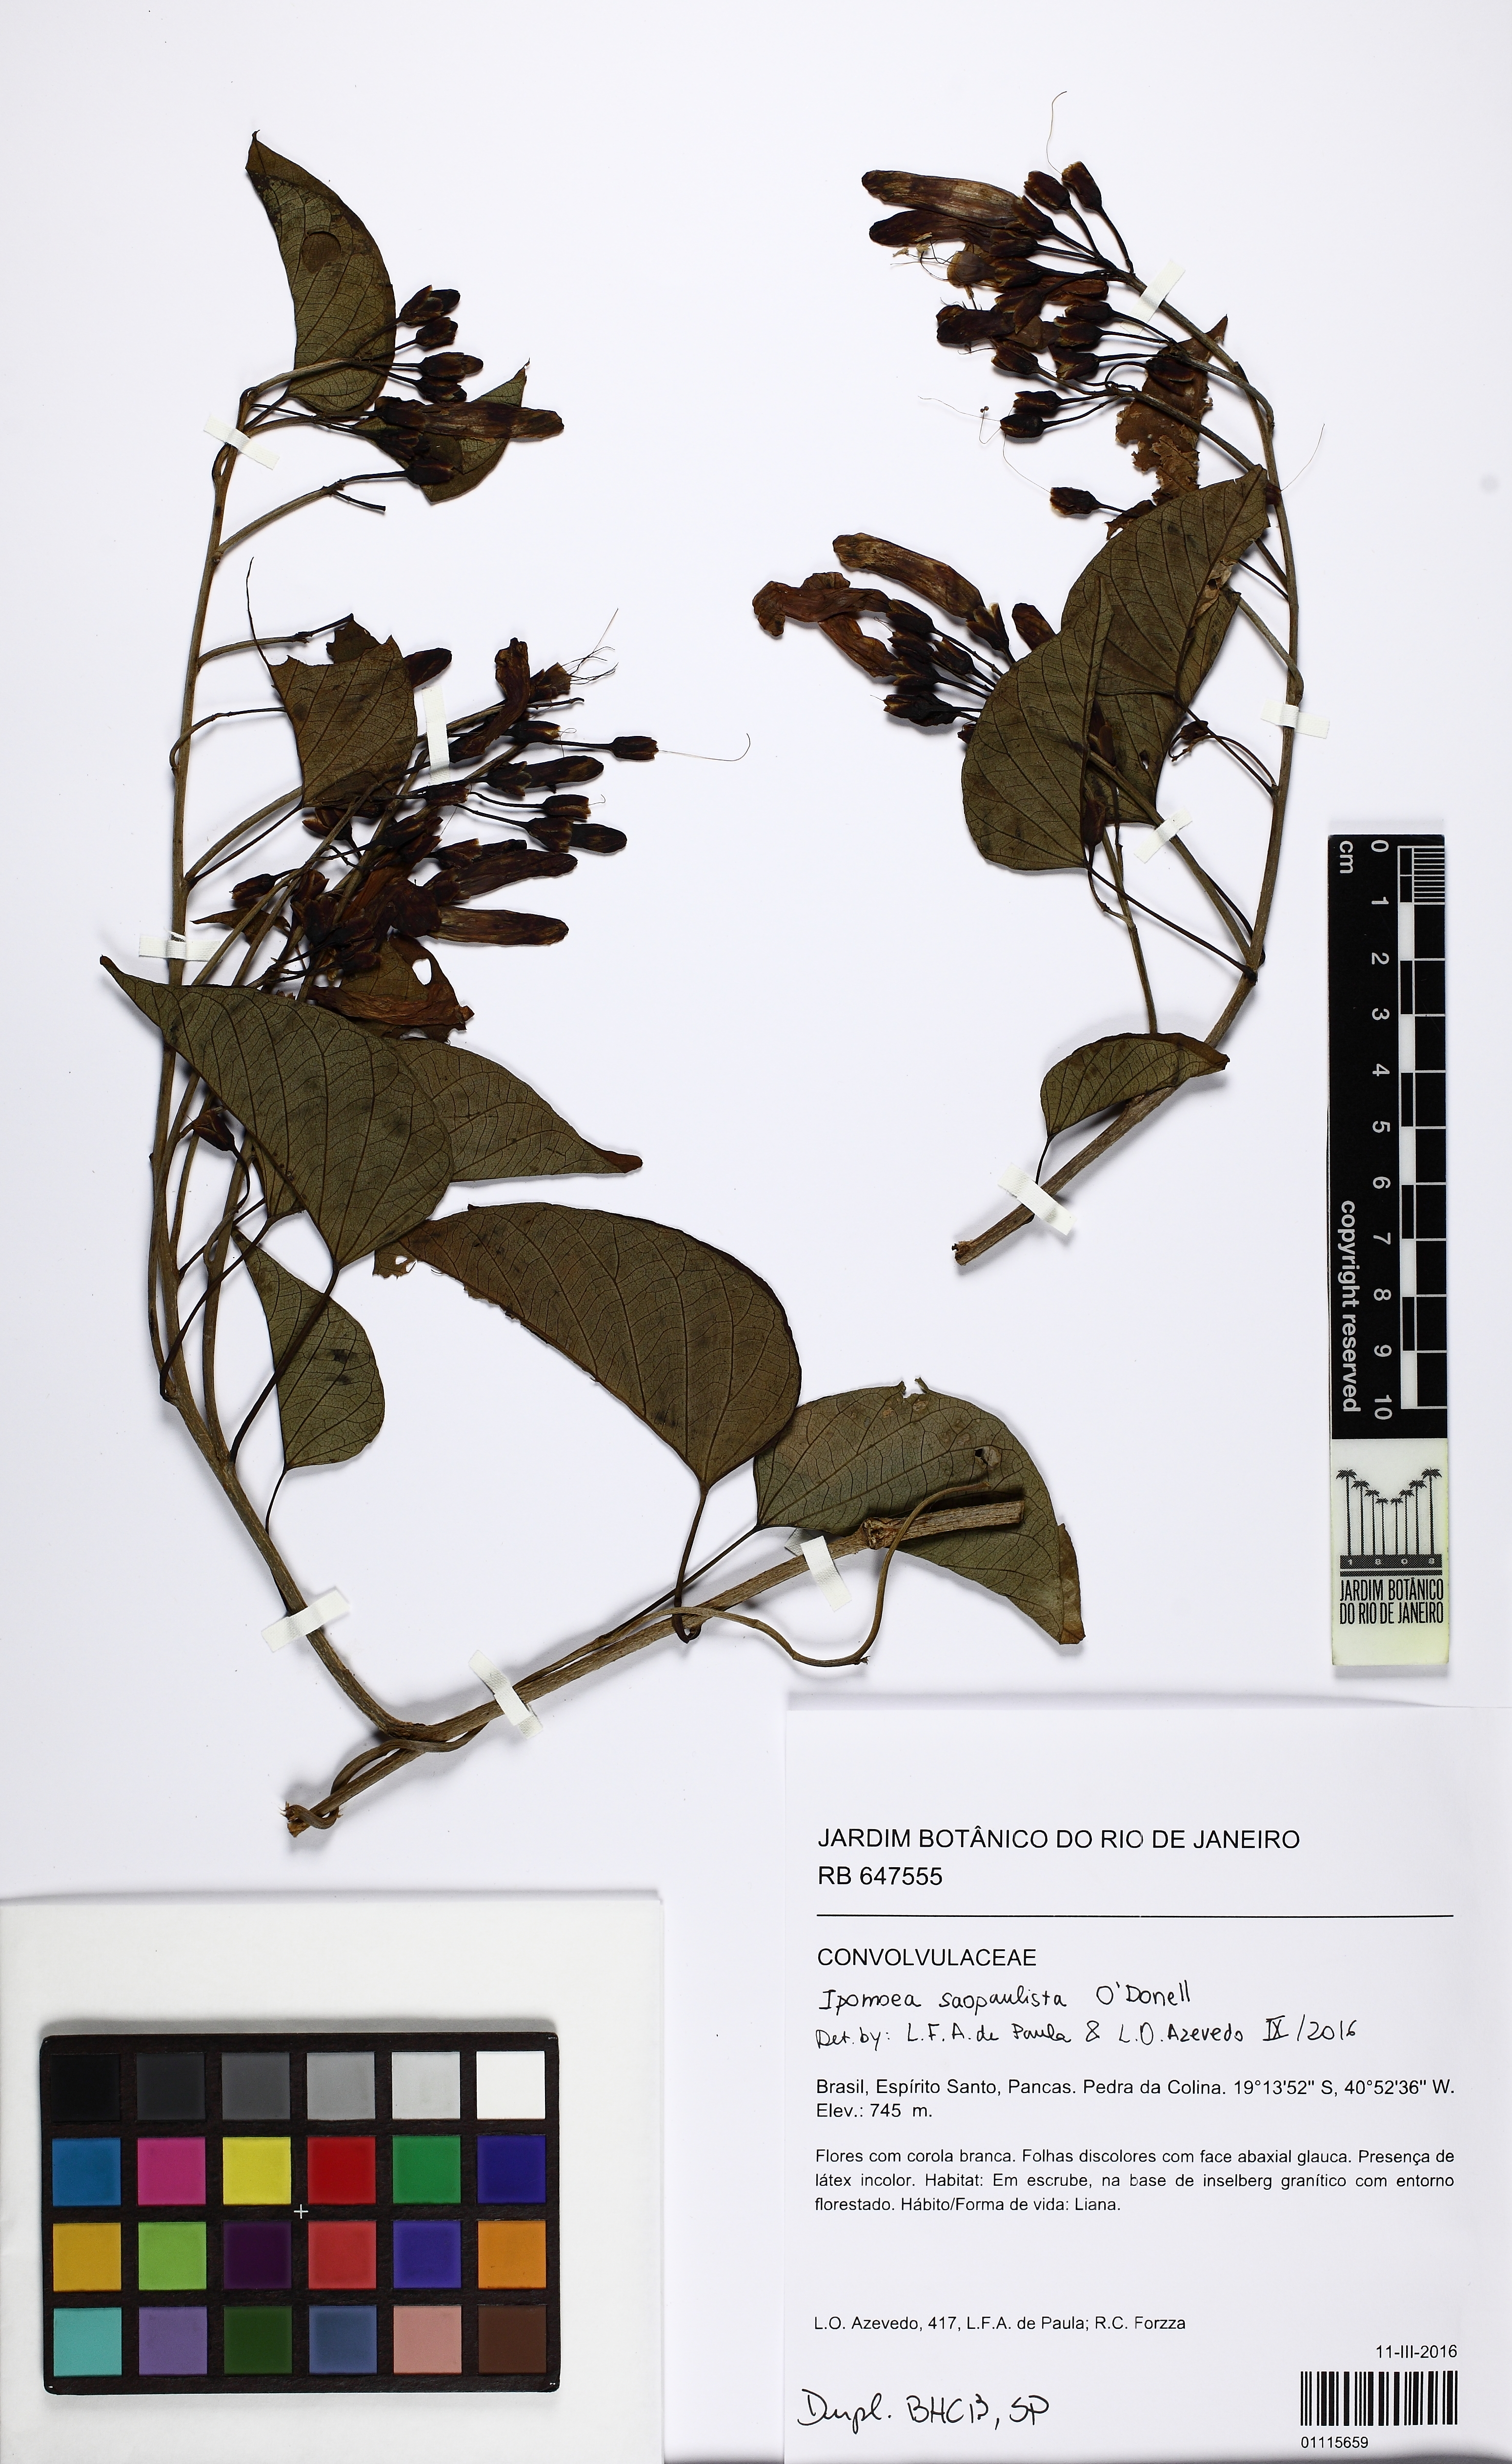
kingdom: Plantae
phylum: Tracheophyta
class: Magnoliopsida
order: Solanales
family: Convolvulaceae
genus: Ipomoea
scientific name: Ipomoea saopaulista
